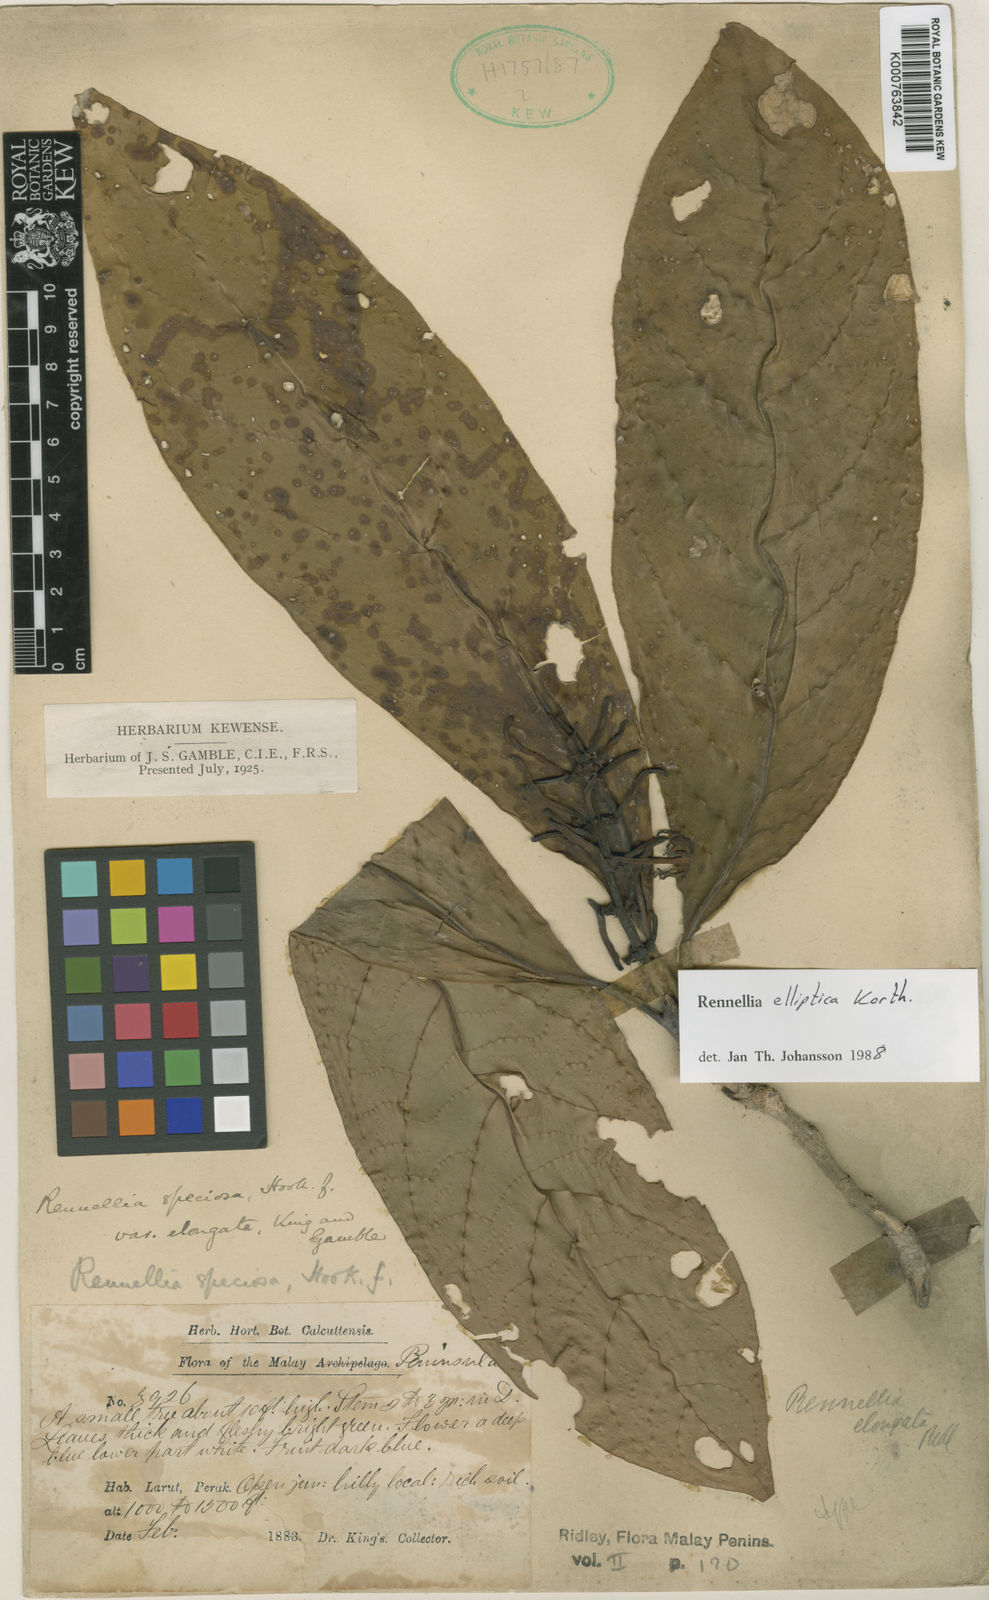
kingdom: Plantae
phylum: Tracheophyta
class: Magnoliopsida
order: Gentianales
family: Rubiaceae
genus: Rennellia
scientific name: Rennellia elliptica
